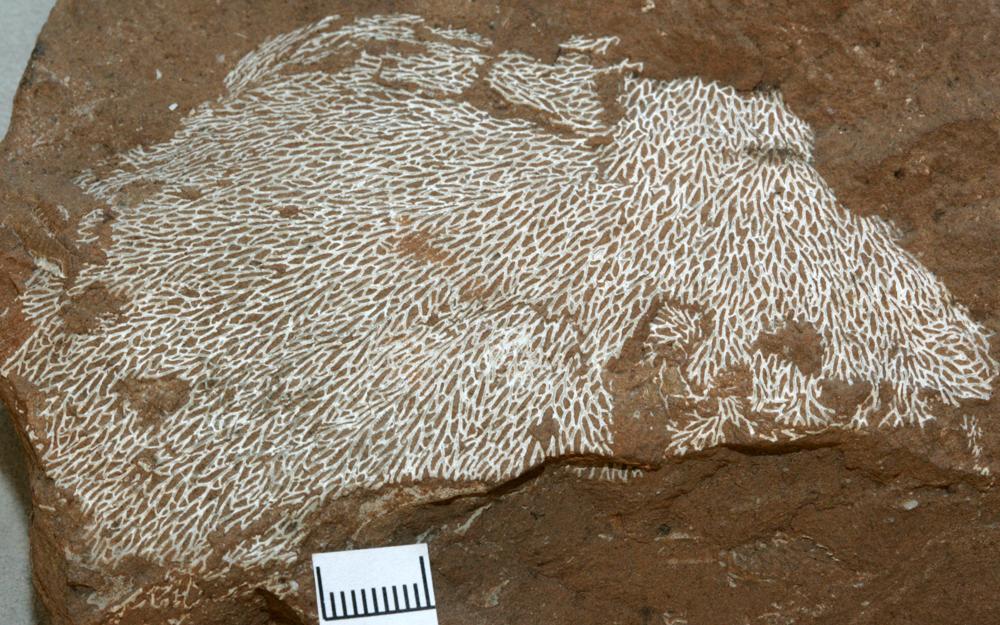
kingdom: Animalia
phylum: Bryozoa
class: Stenolaemata
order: Fenestrida
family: Phylloporinidae
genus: Phylloporina
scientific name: Phylloporina
